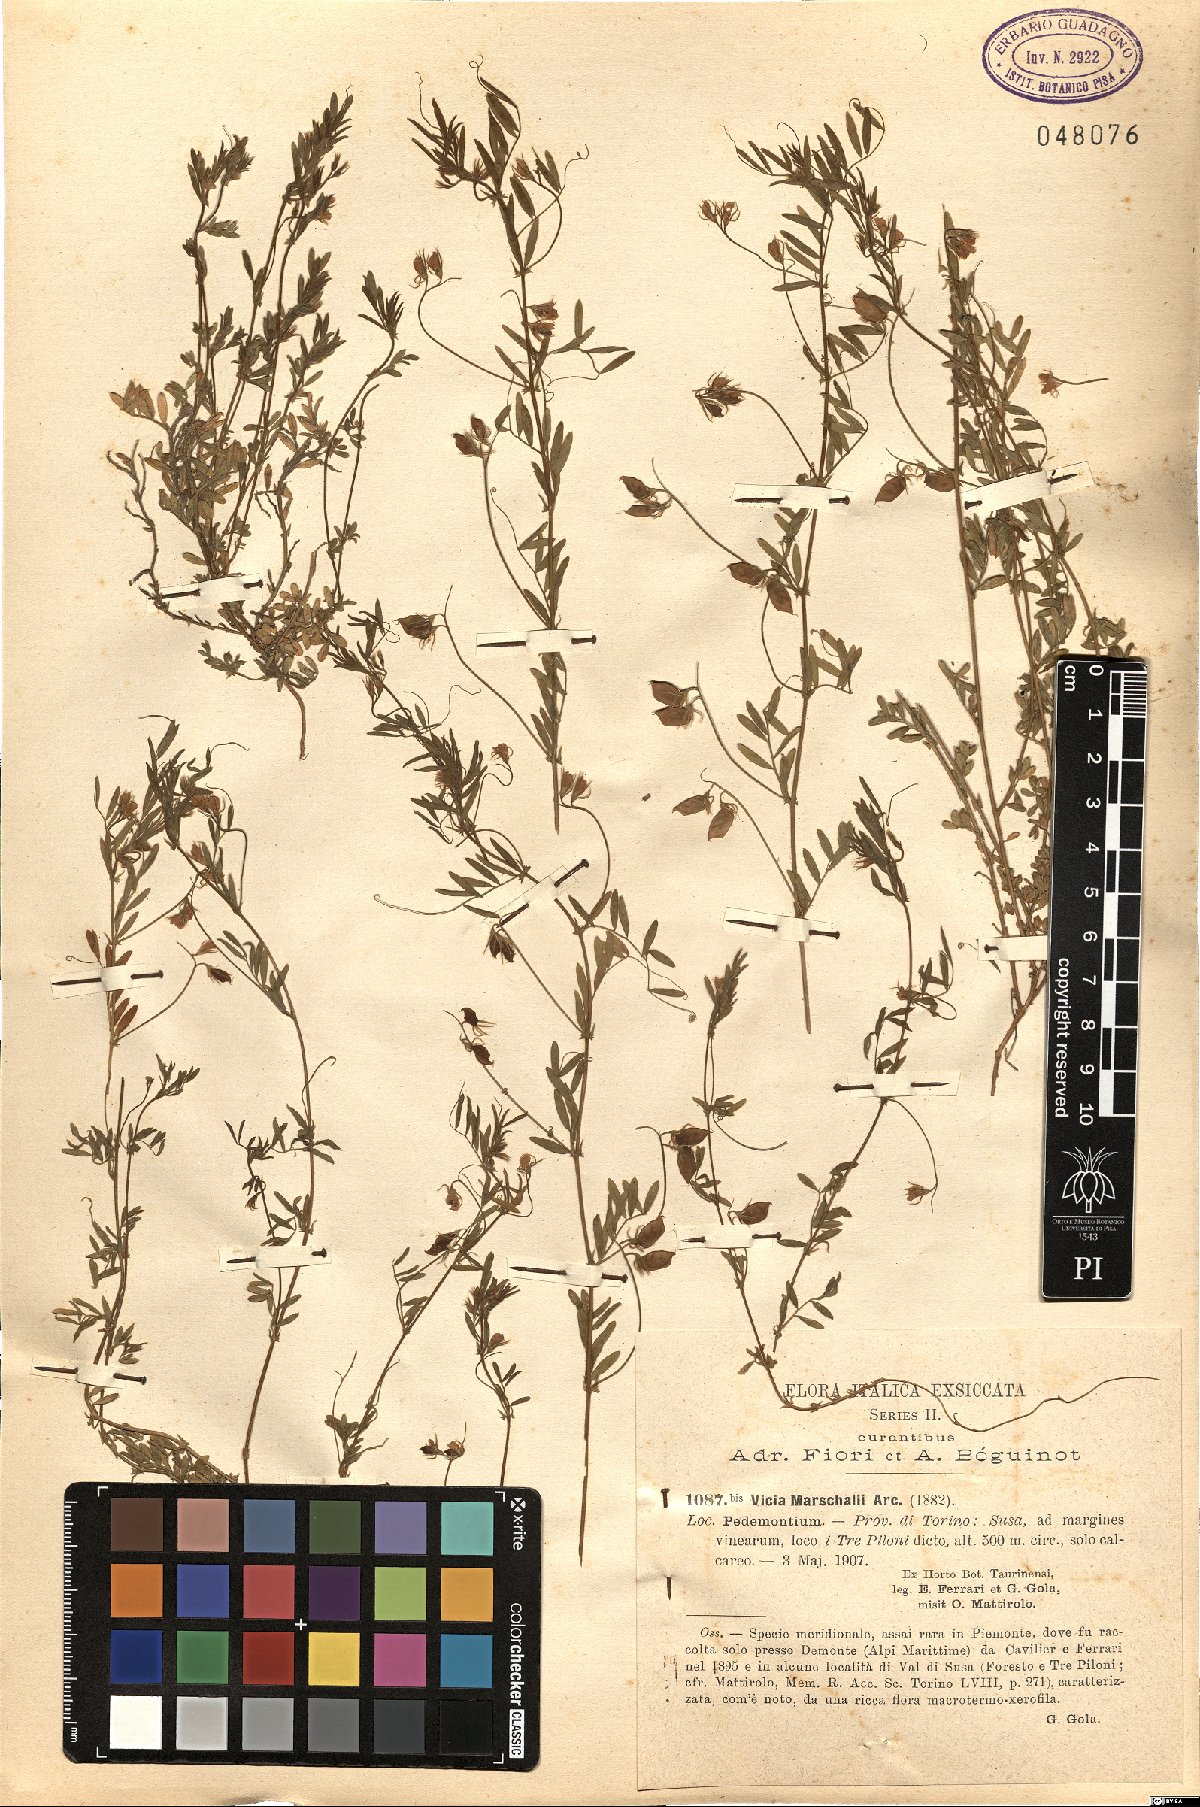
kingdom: Plantae
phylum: Tracheophyta
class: Magnoliopsida
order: Fabales
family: Fabaceae
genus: Vicia
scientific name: Vicia lentoides
